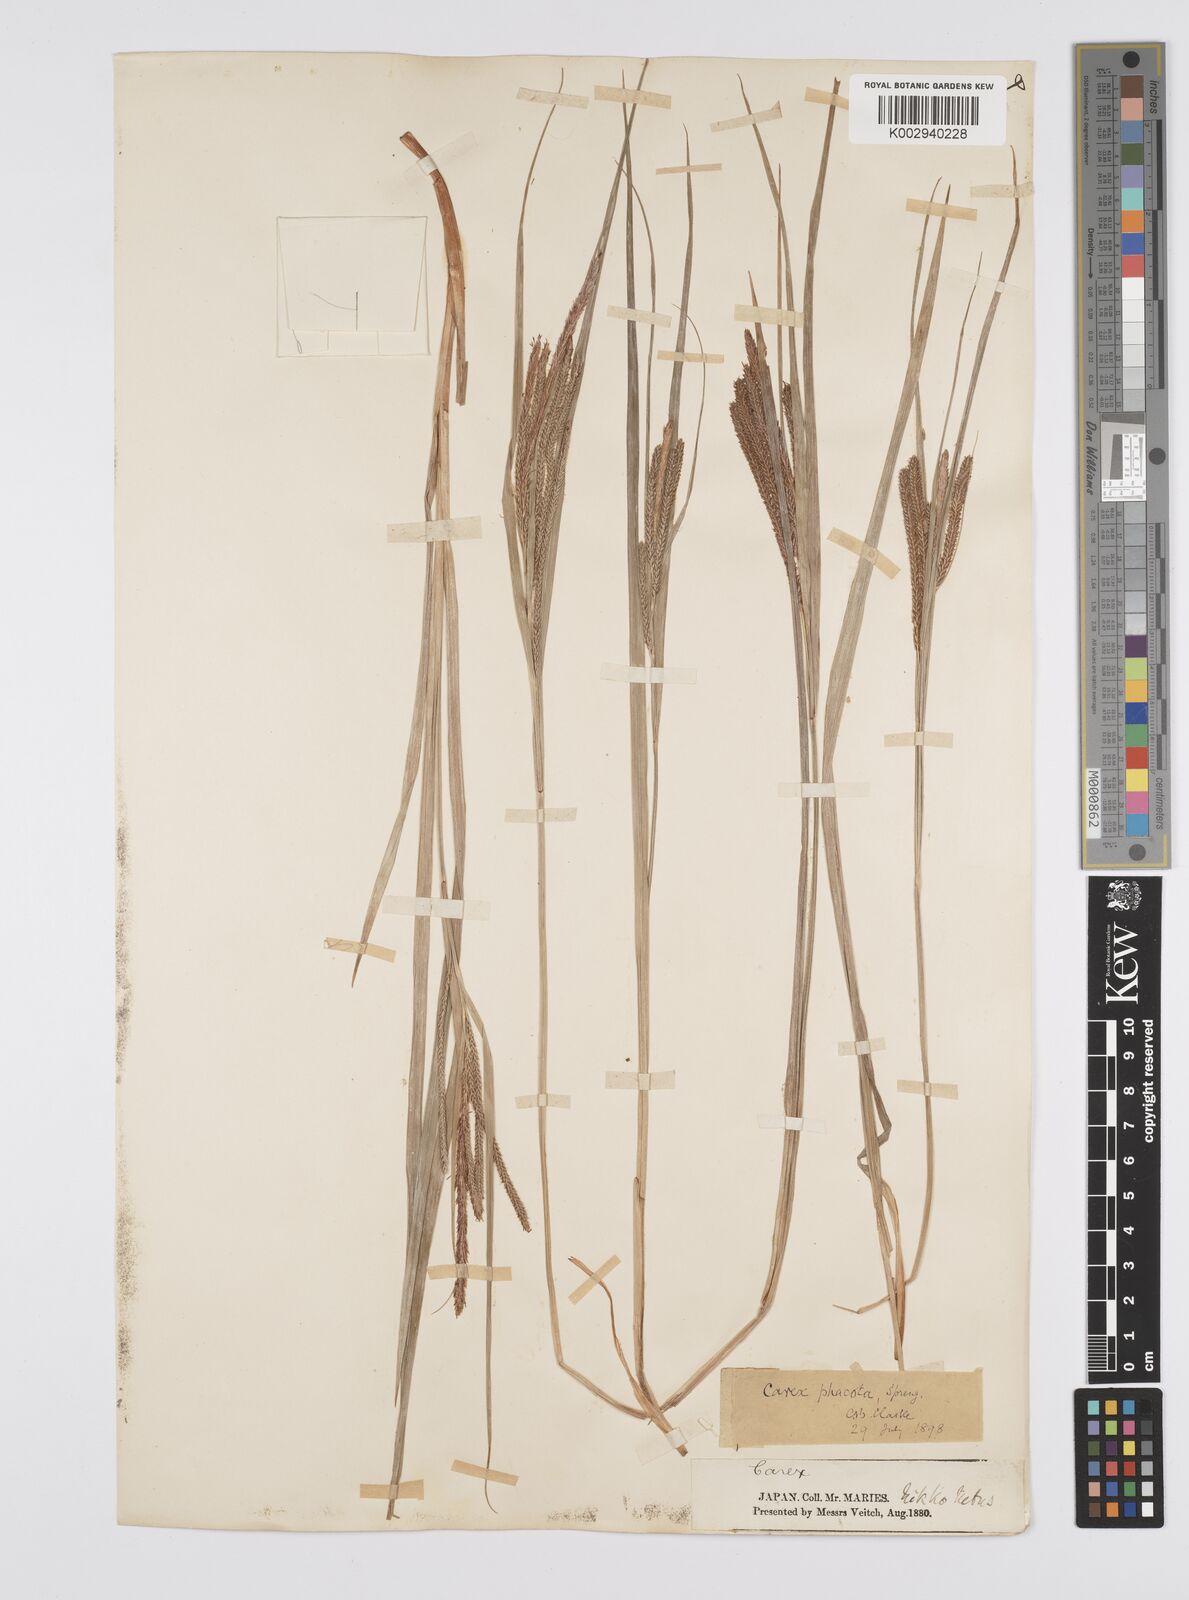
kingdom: Plantae
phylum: Tracheophyta
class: Liliopsida
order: Poales
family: Cyperaceae
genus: Carex
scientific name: Carex phacota
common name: Lakeshore sedge
